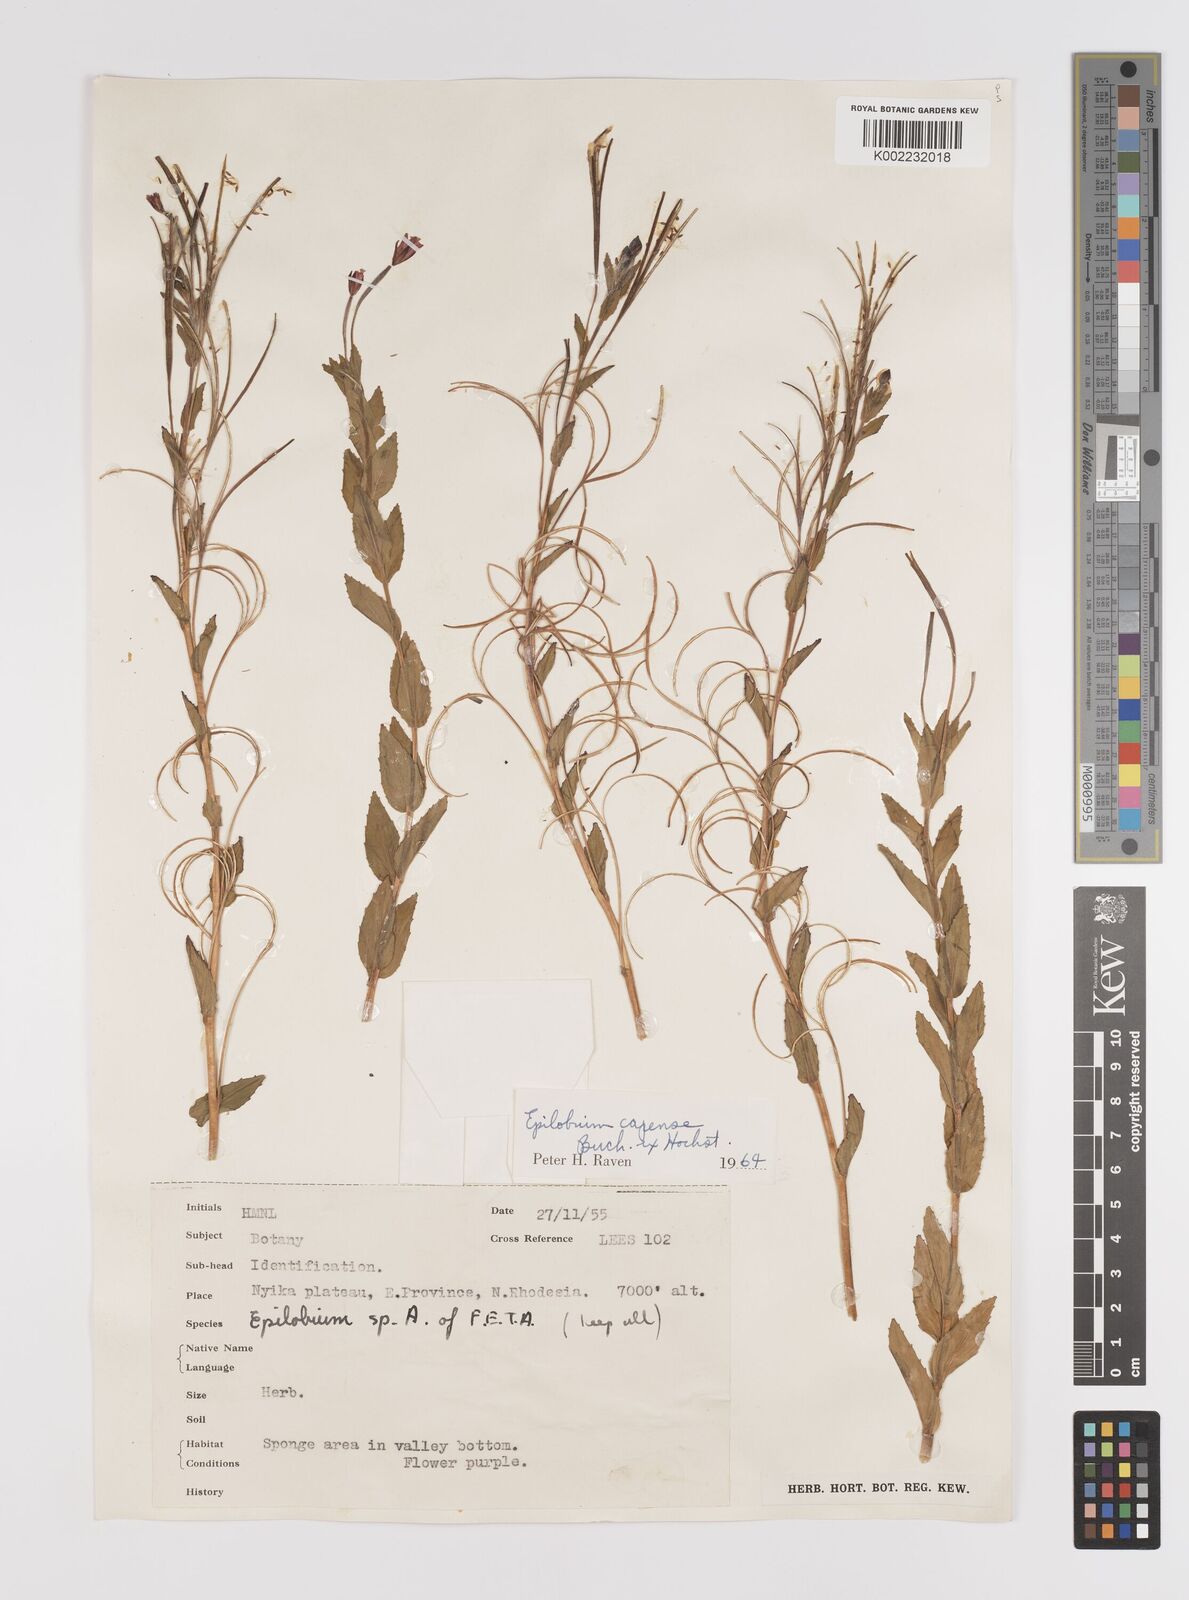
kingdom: Plantae
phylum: Tracheophyta
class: Magnoliopsida
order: Myrtales
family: Onagraceae
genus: Epilobium
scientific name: Epilobium capense
